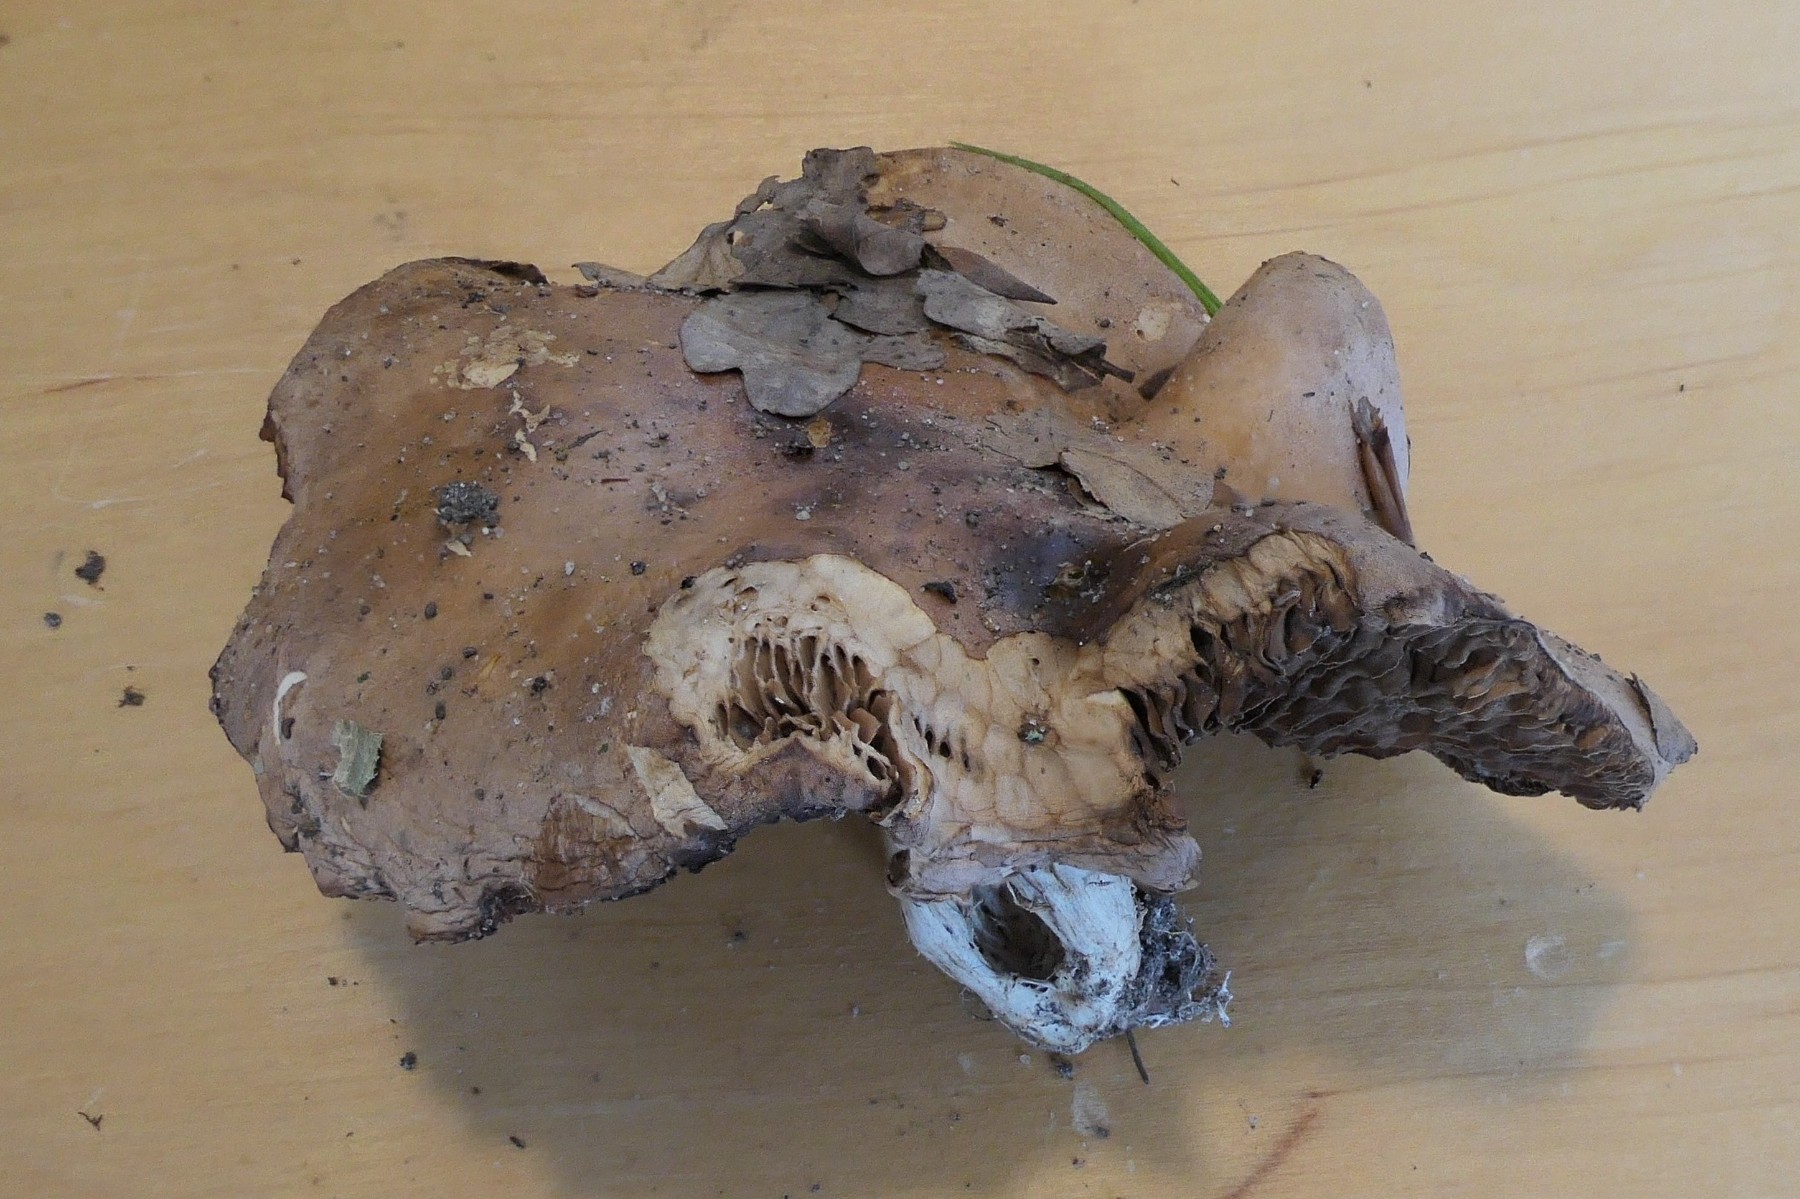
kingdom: Fungi
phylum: Basidiomycota
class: Agaricomycetes
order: Agaricales
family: Hymenogastraceae
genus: Hebeloma
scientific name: Hebeloma
